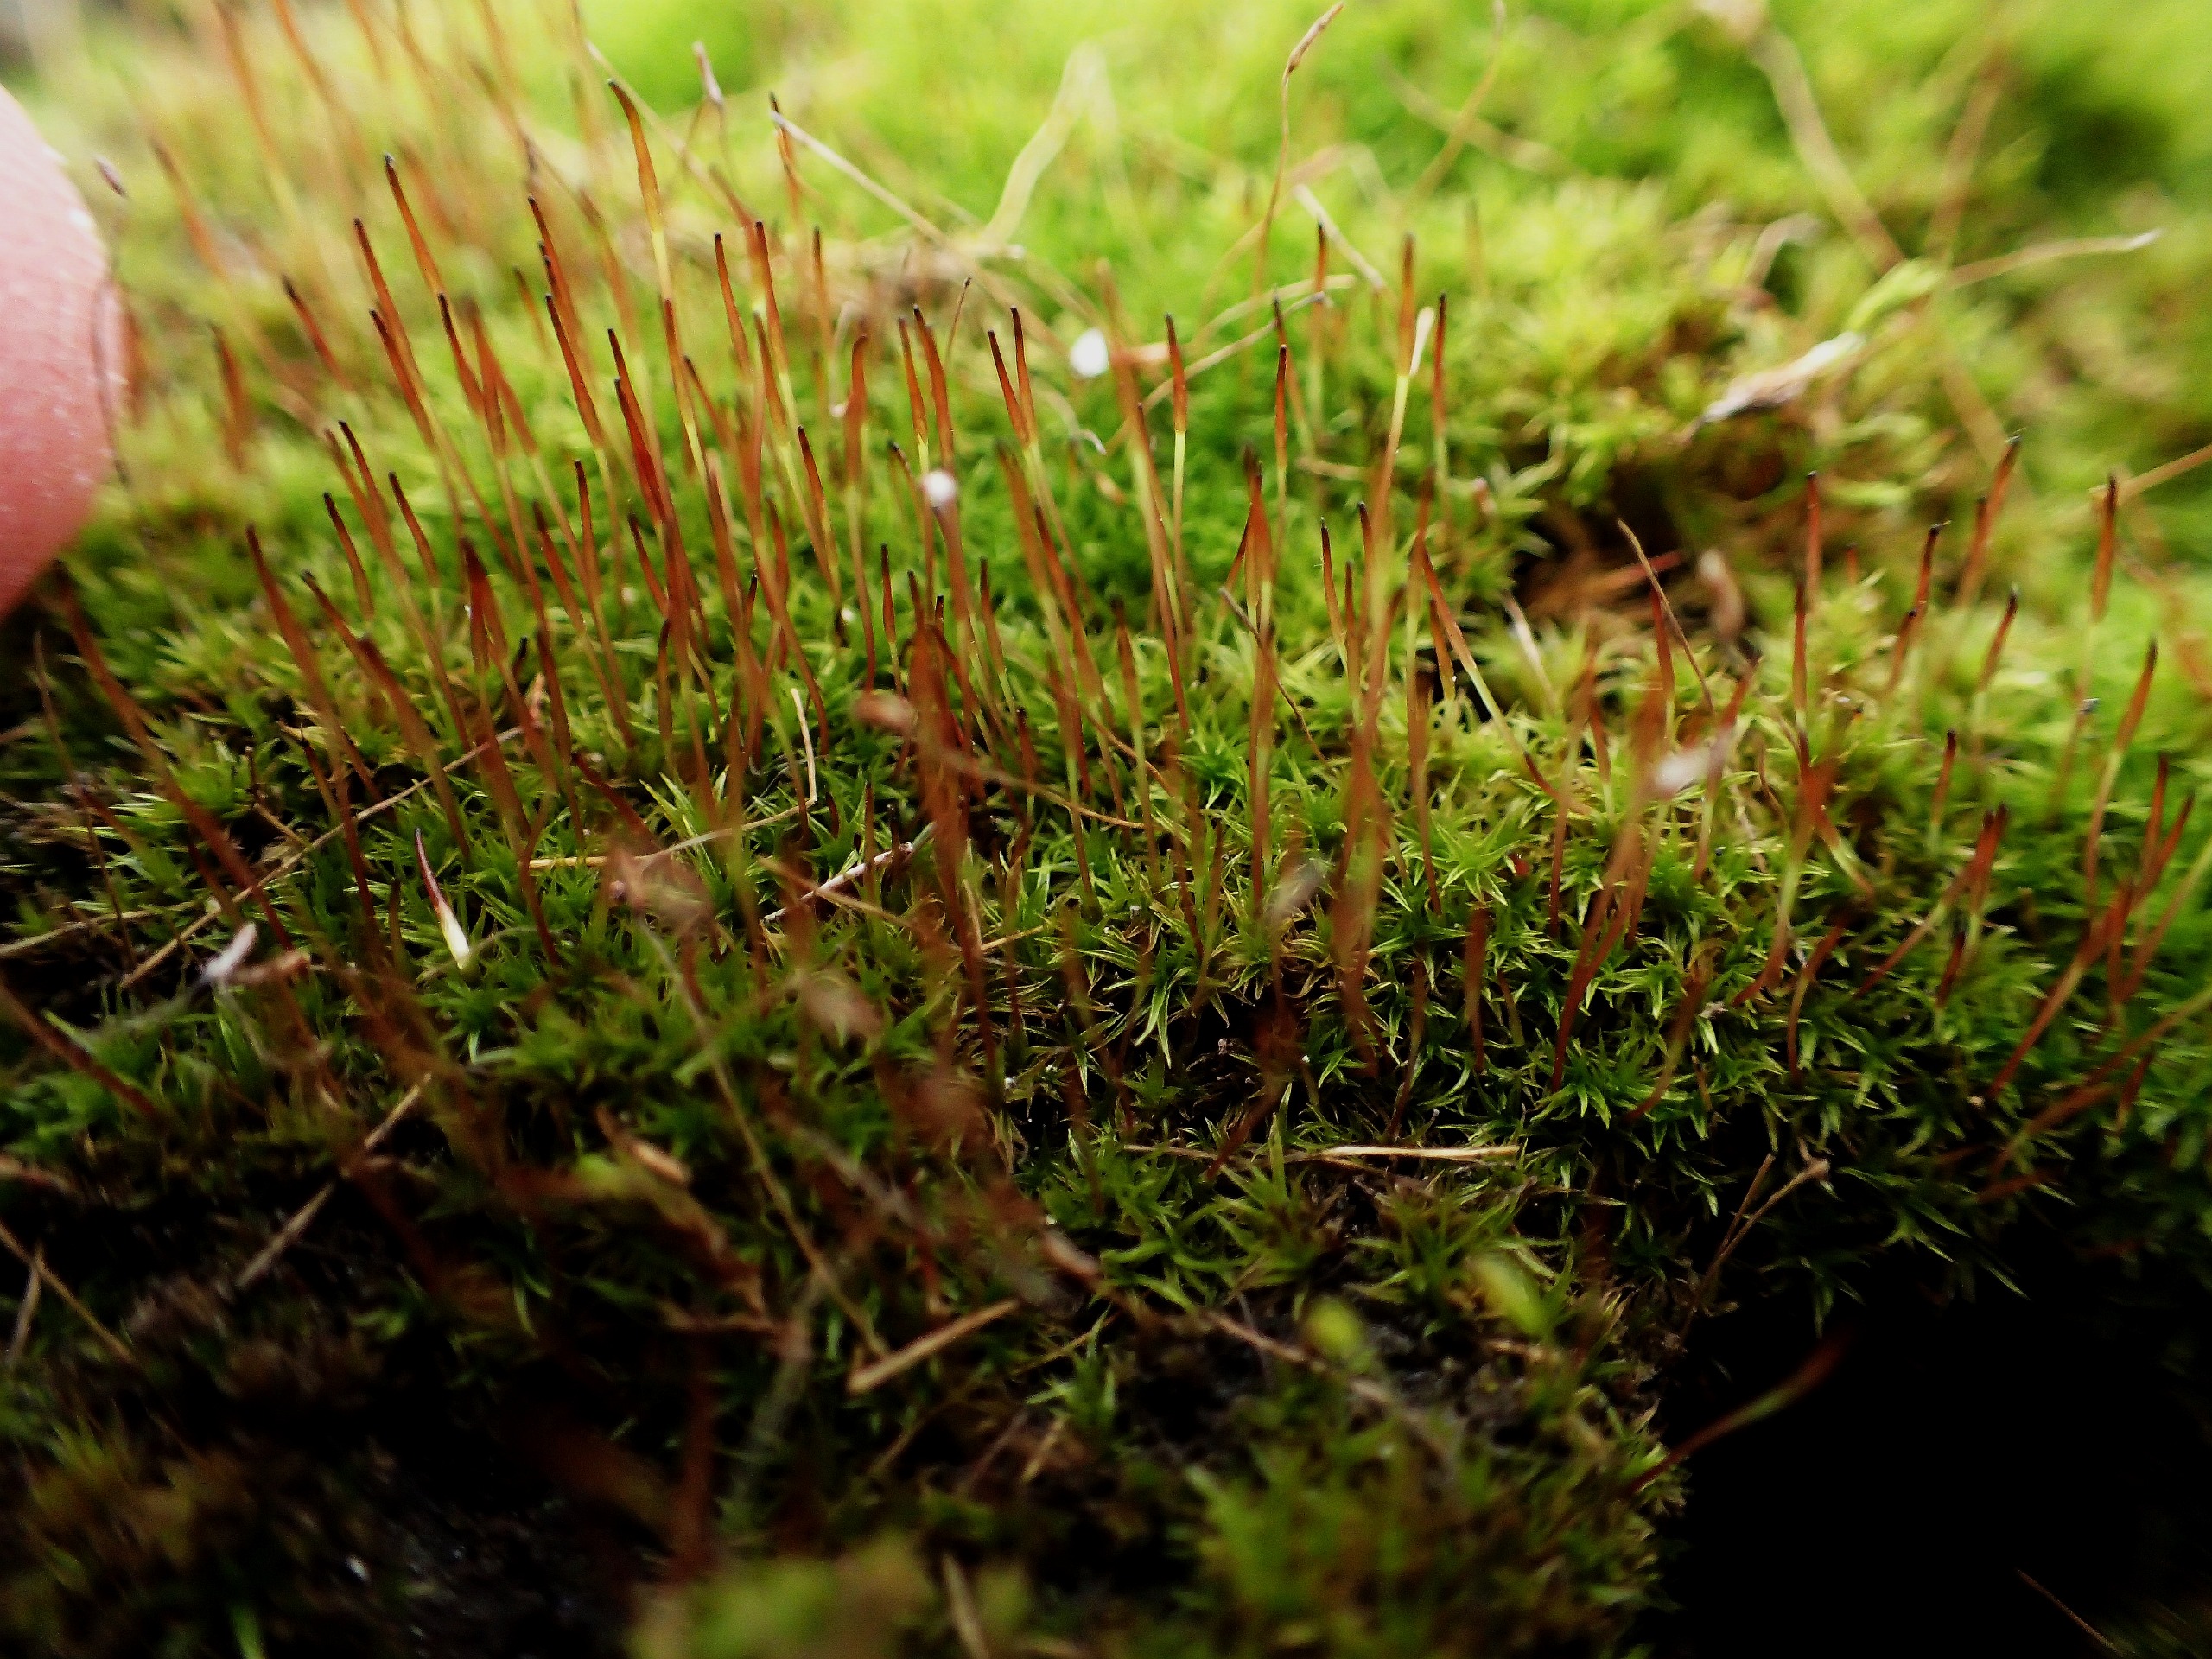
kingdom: Plantae
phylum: Bryophyta
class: Bryopsida
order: Dicranales
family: Ditrichaceae
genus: Ceratodon
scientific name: Ceratodon purpureus
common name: Rød horntand
